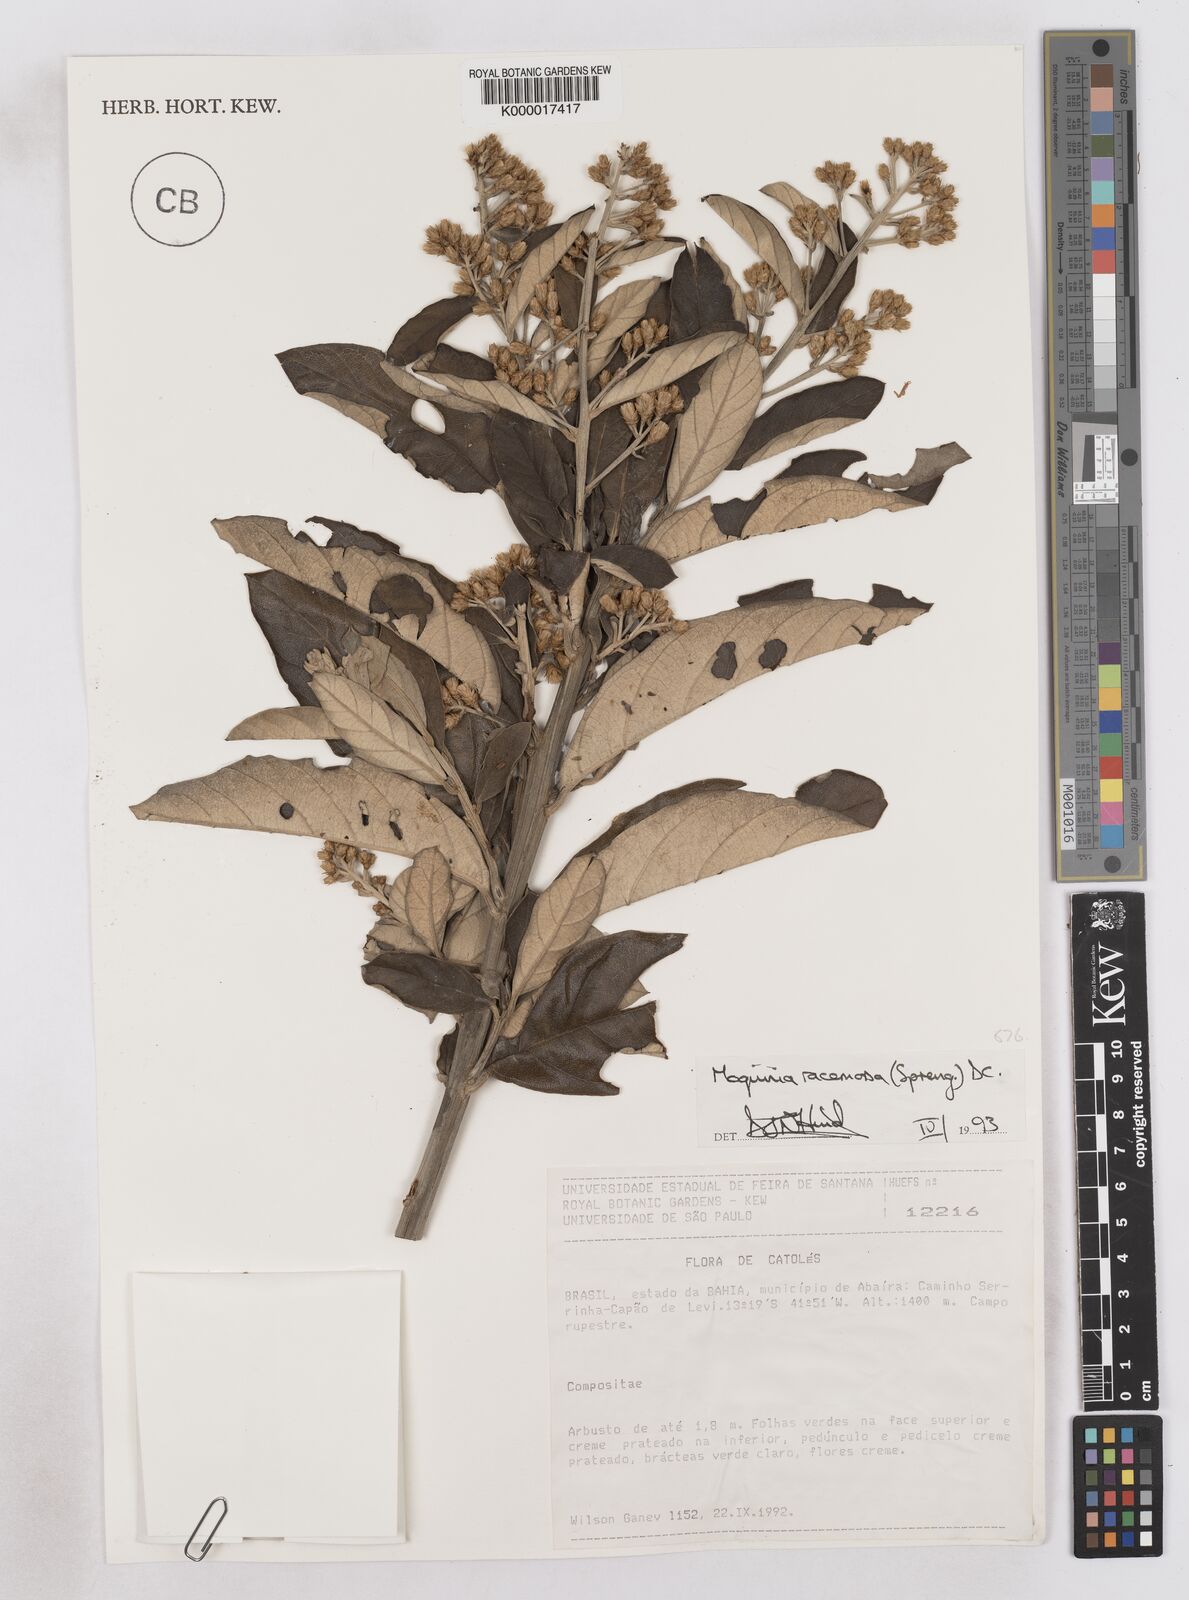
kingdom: Plantae
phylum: Tracheophyta
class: Magnoliopsida
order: Asterales
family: Asteraceae
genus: Moquinia
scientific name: Moquinia racemosa
